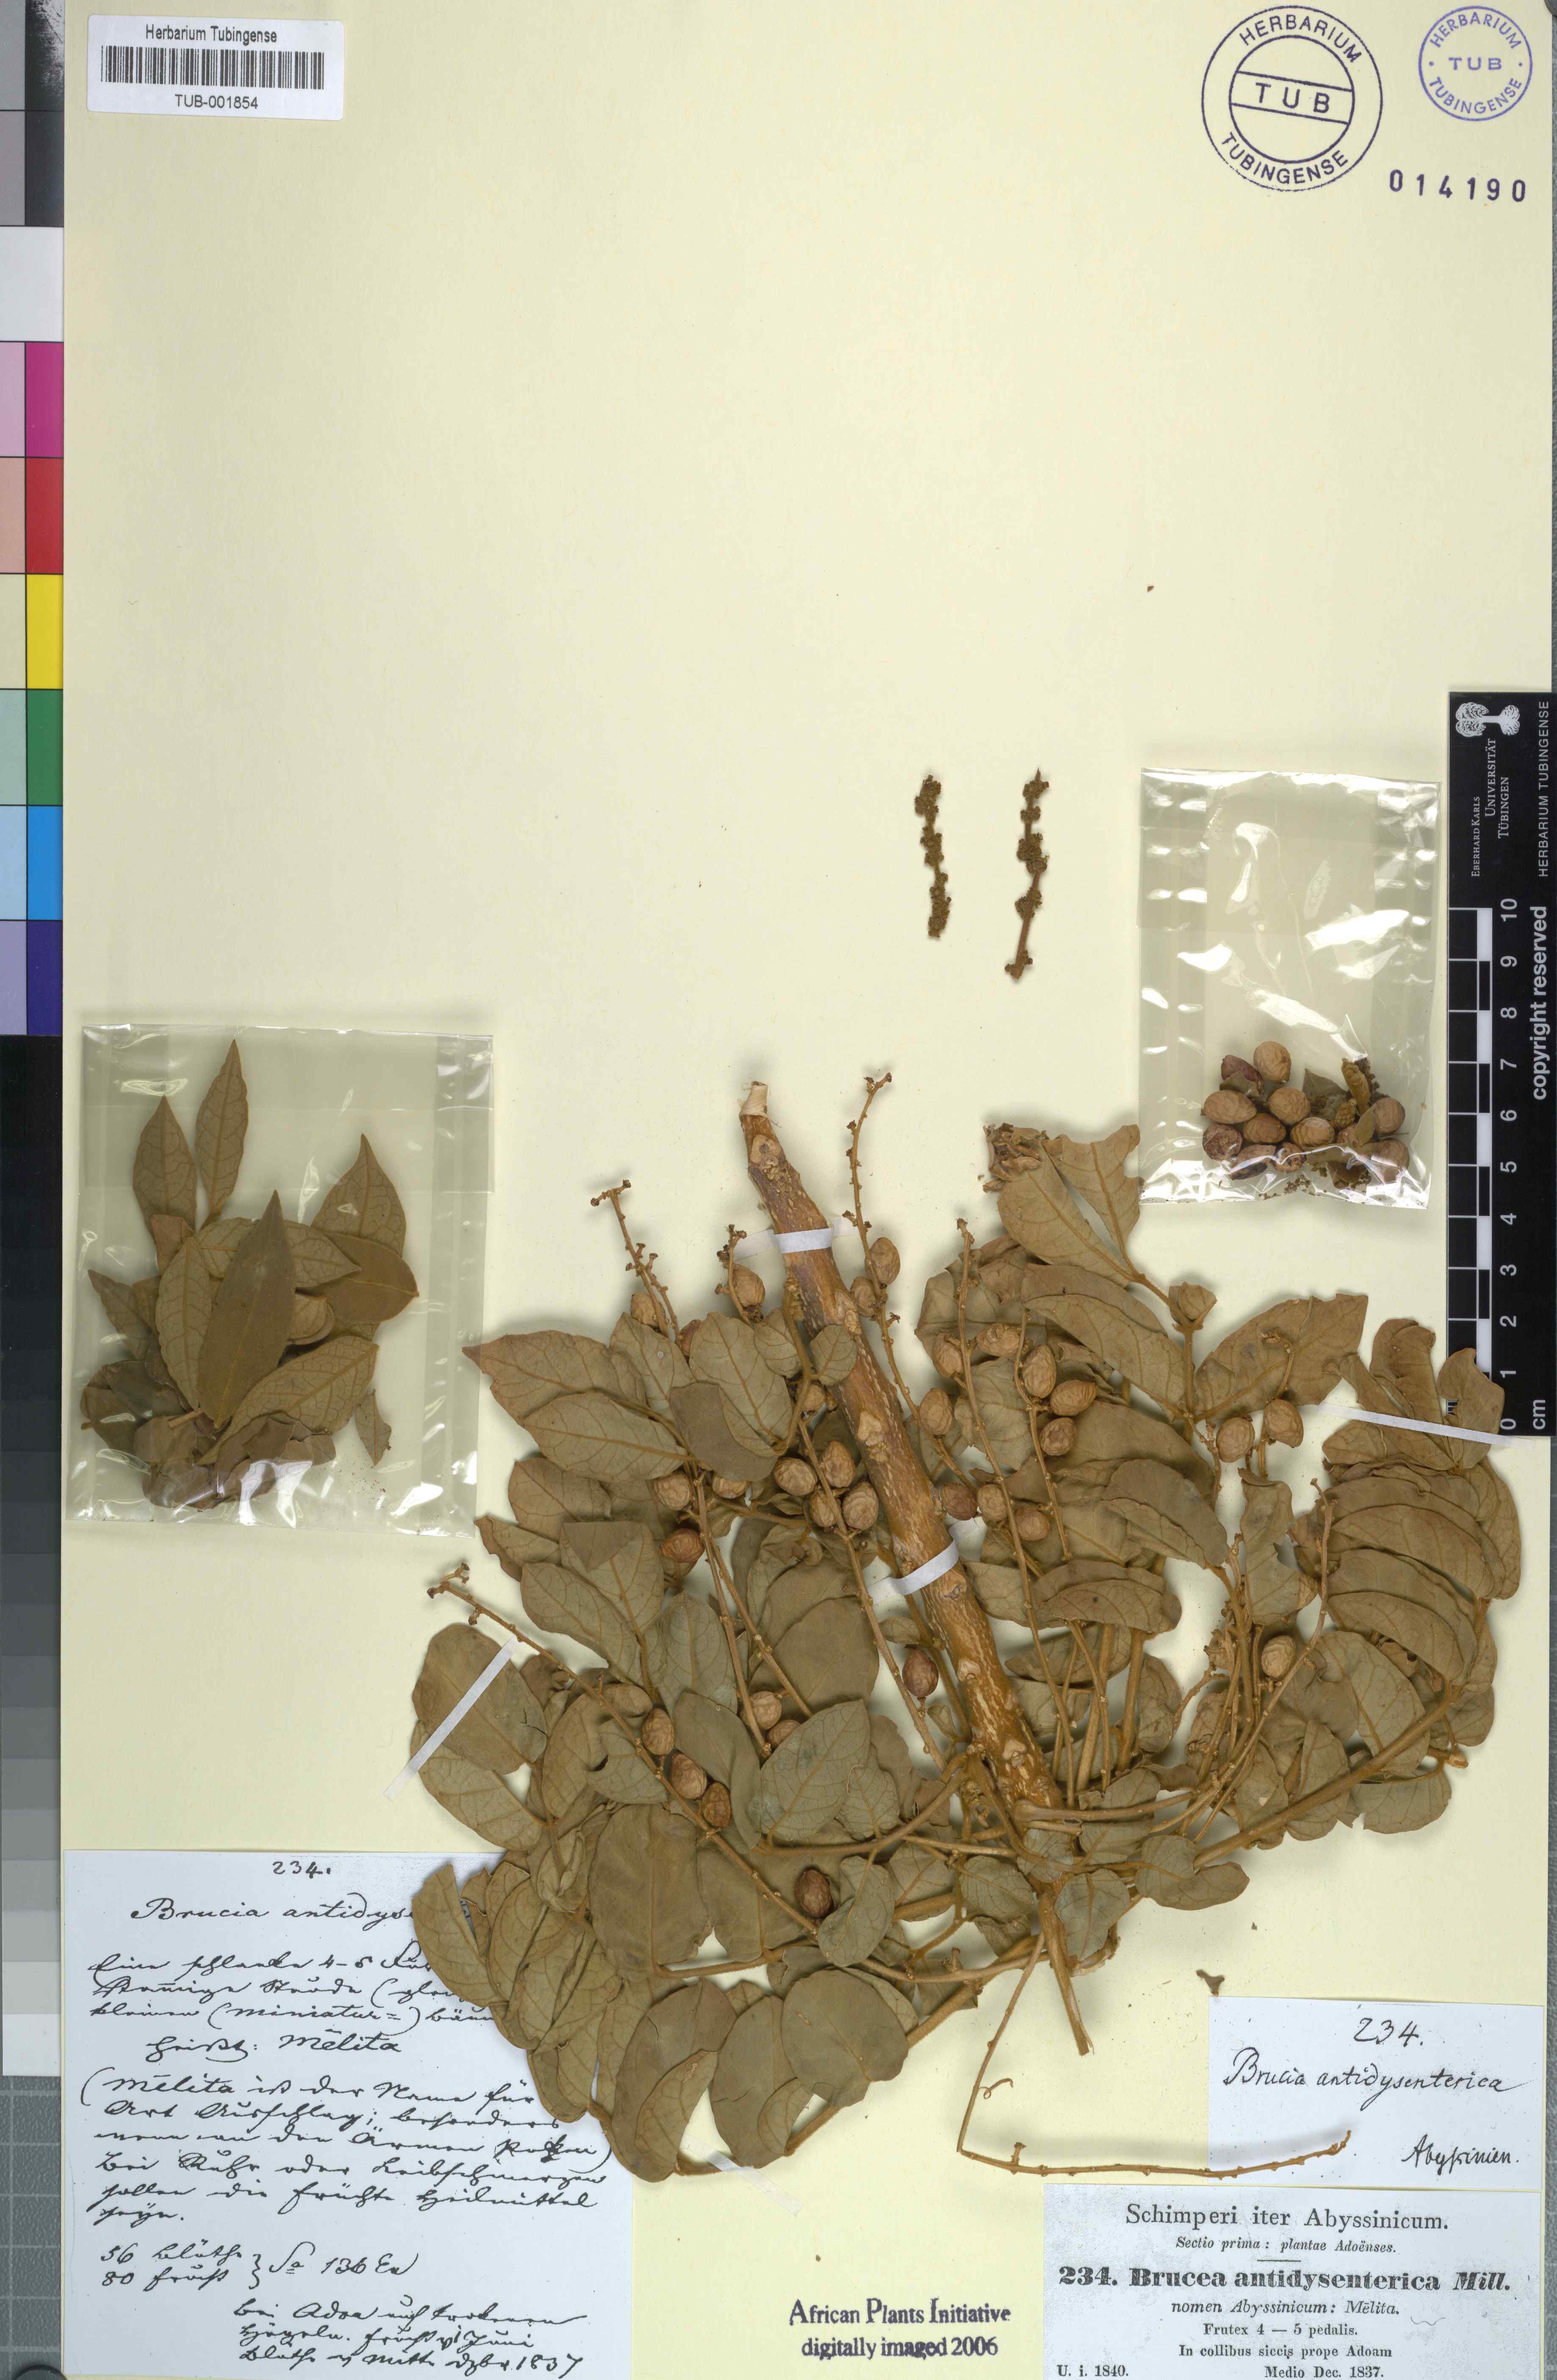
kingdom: Plantae
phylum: Tracheophyta
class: Magnoliopsida
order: Sapindales
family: Simaroubaceae
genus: Brucea
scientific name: Brucea antidysenterica
